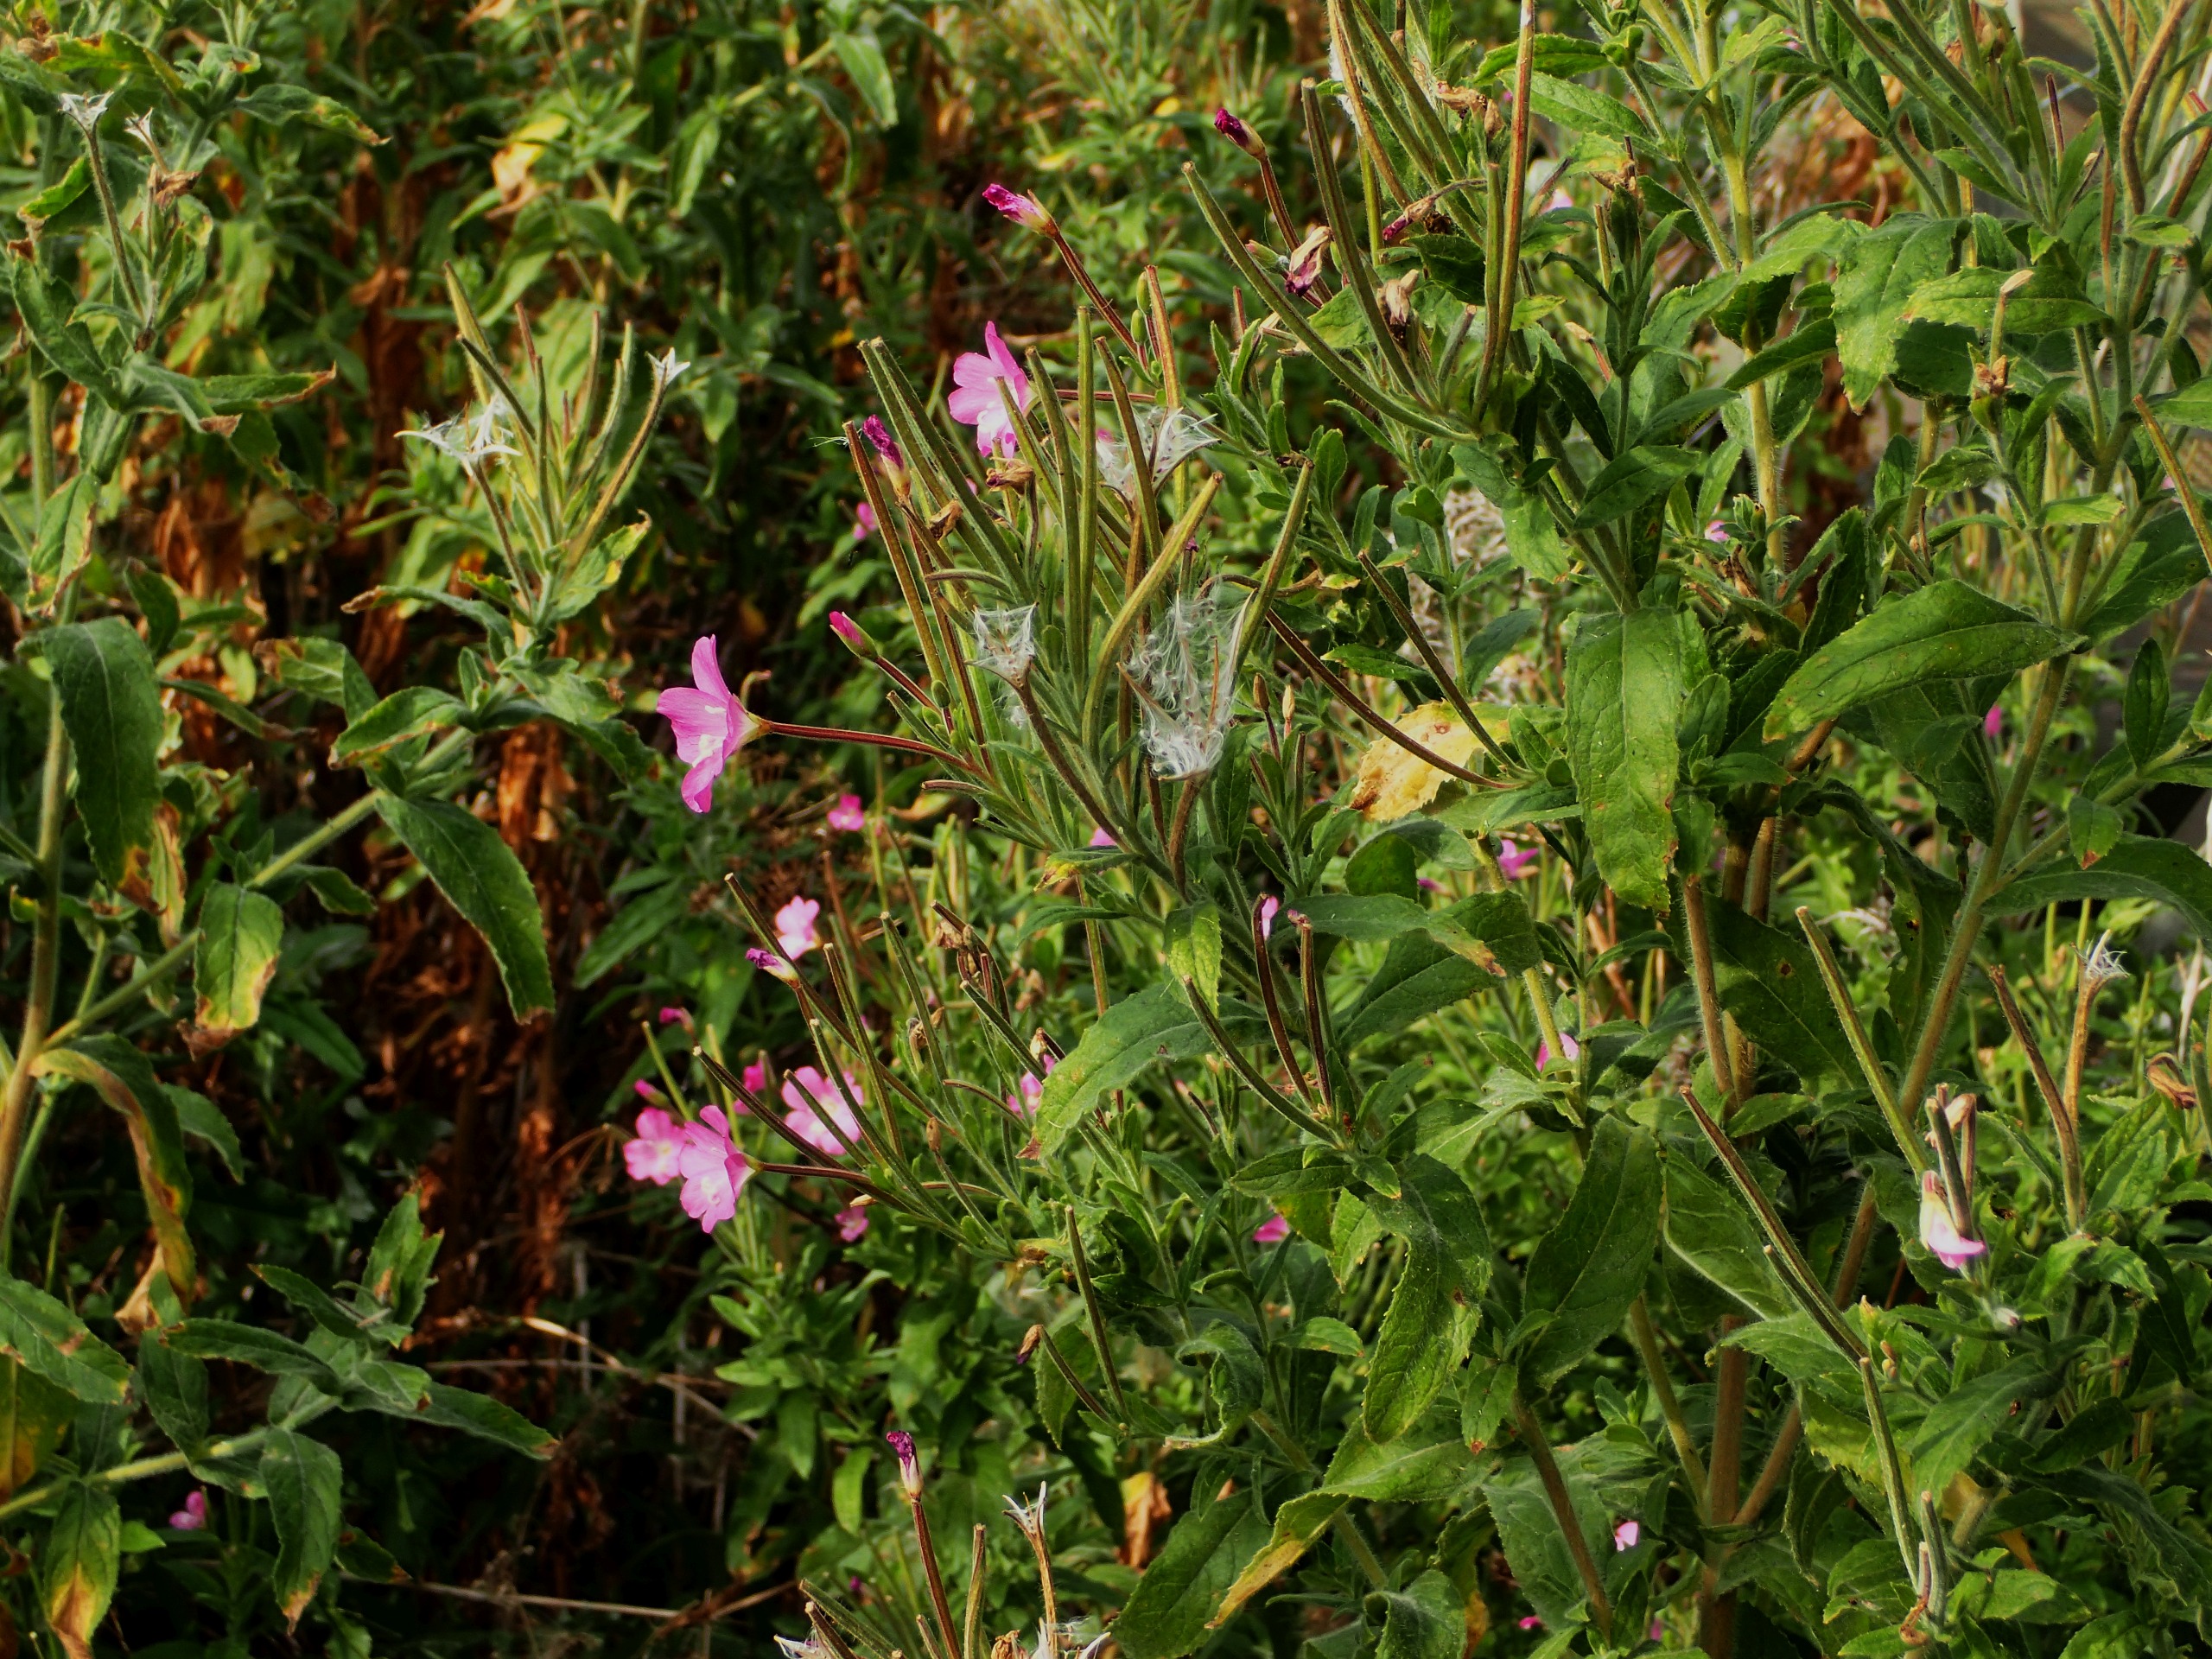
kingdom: Plantae
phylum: Tracheophyta
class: Magnoliopsida
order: Myrtales
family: Onagraceae
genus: Epilobium
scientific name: Epilobium hirsutum
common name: Lådden dueurt
